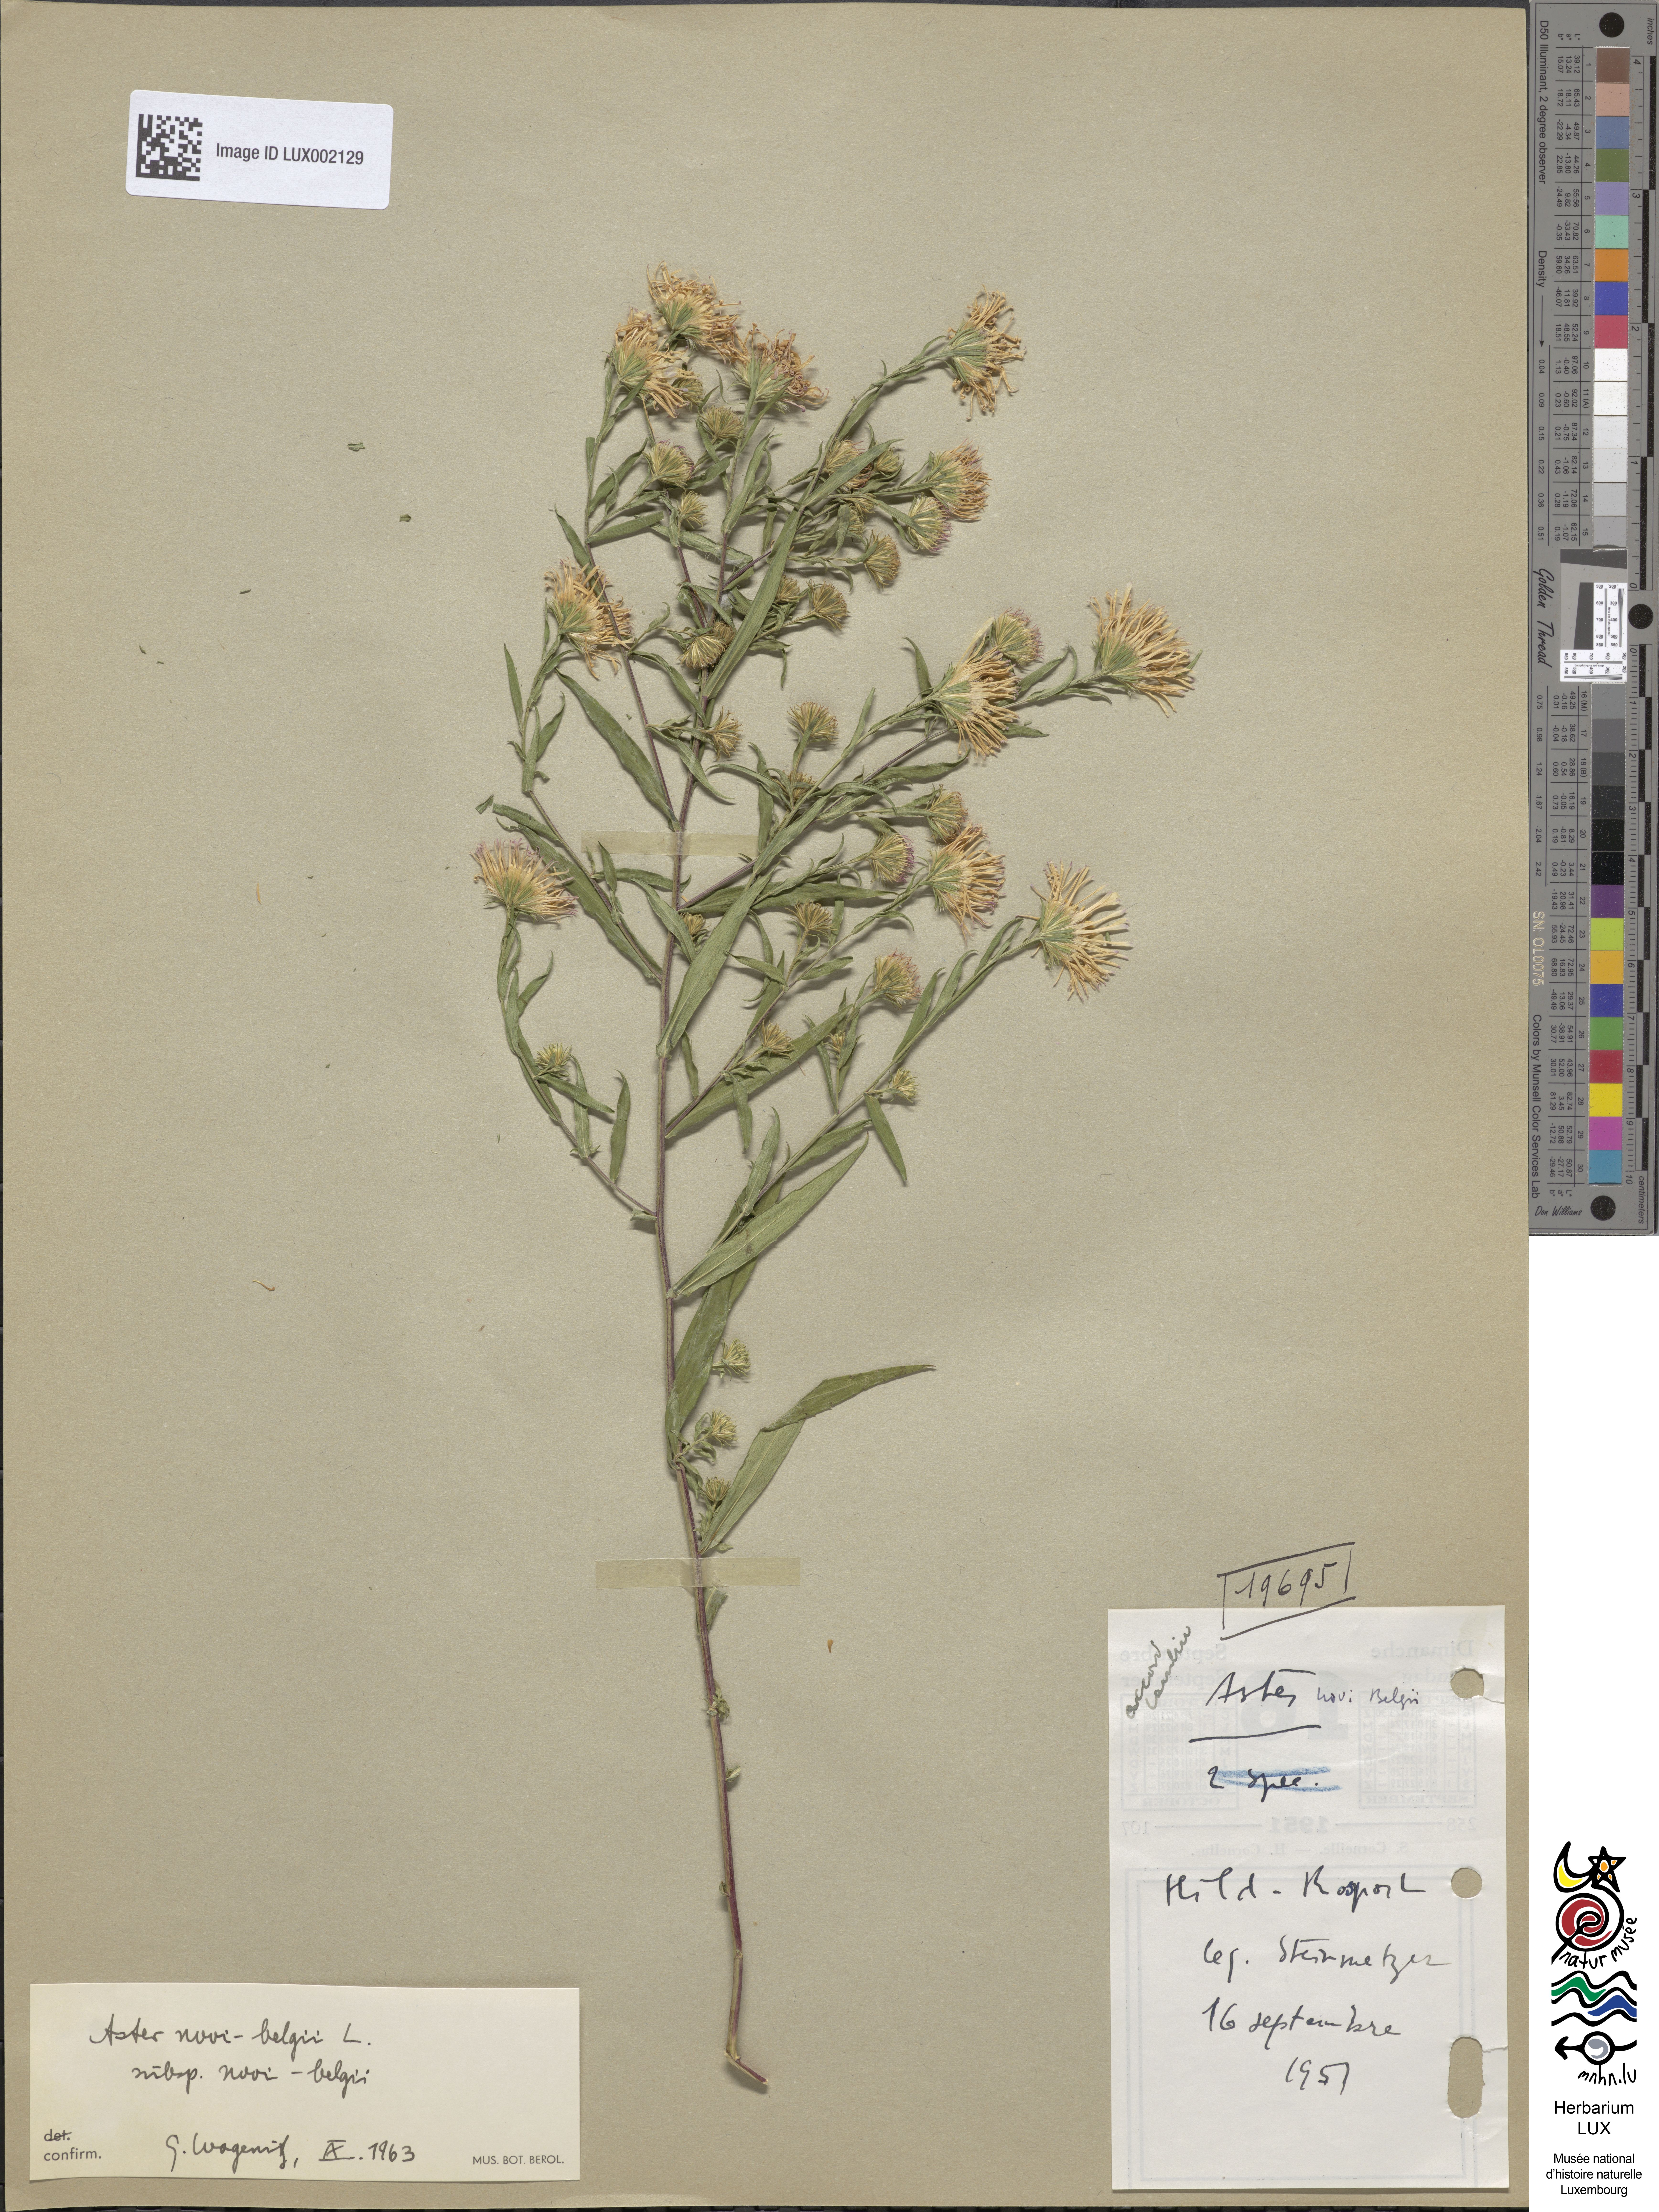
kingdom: Plantae
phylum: Tracheophyta
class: Magnoliopsida
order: Asterales
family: Asteraceae
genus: Symphyotrichum
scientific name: Symphyotrichum novi-belgii
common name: Michaelmas daisy
